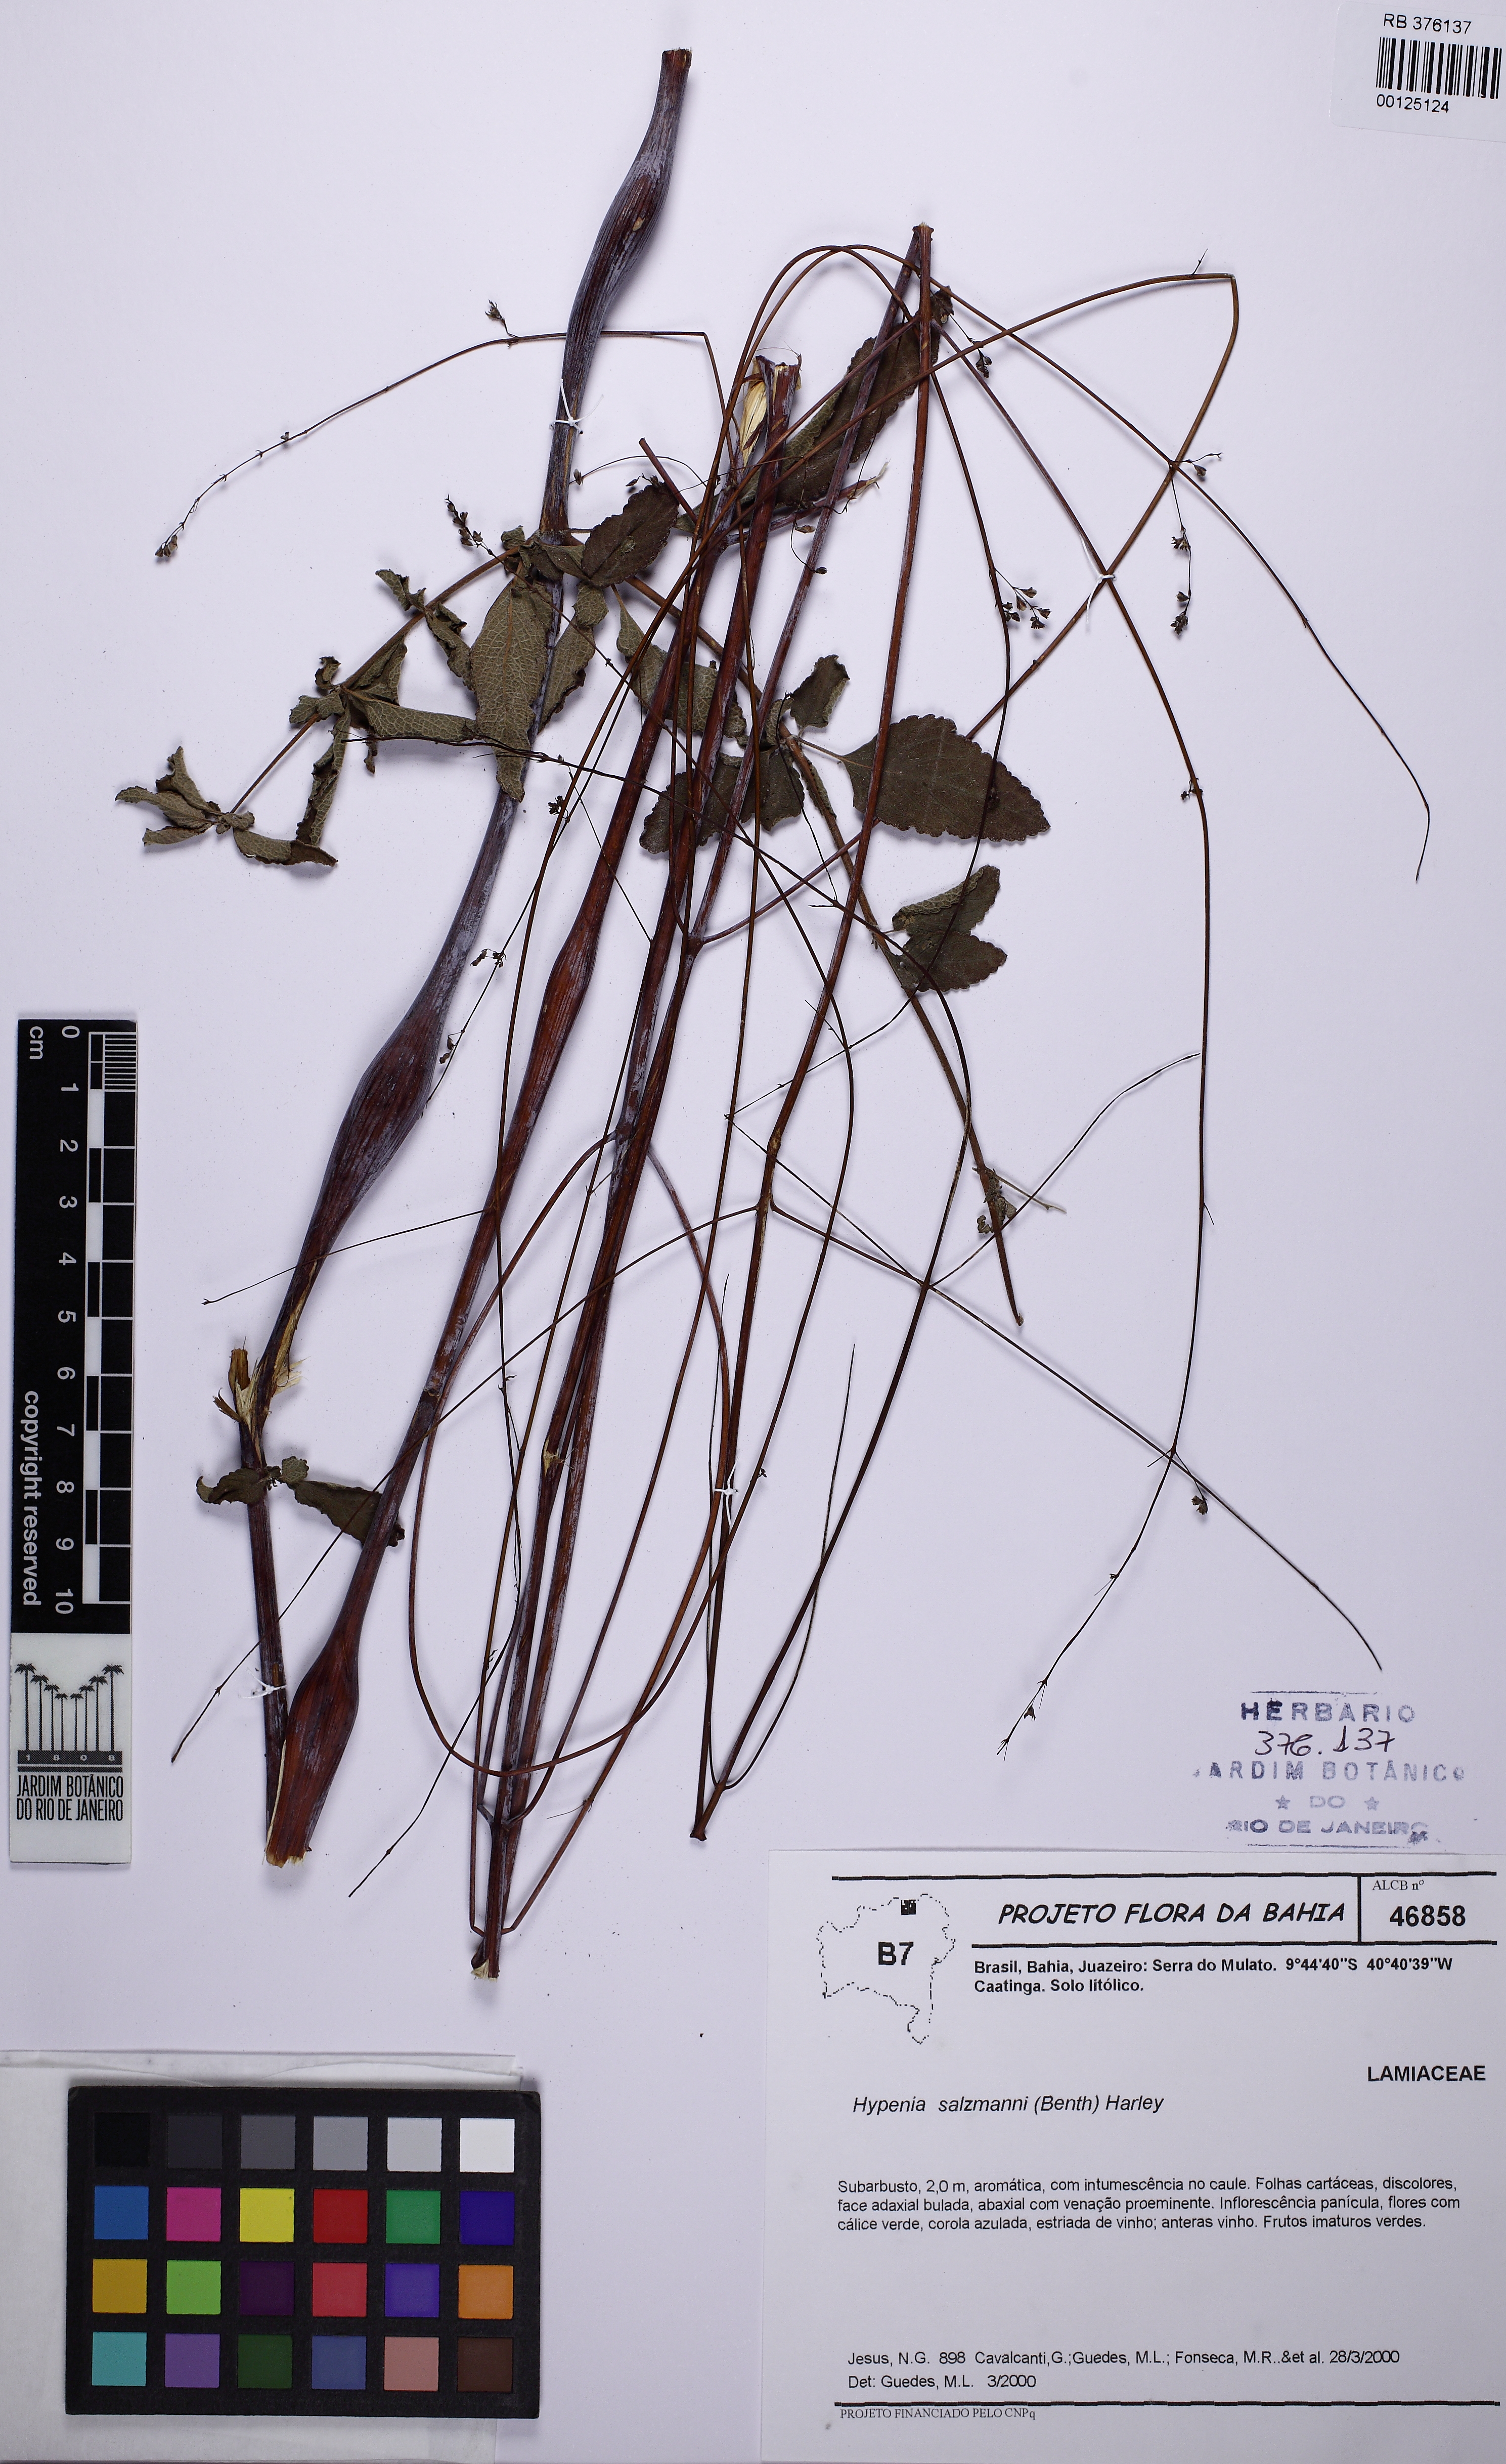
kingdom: Plantae
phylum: Tracheophyta
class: Magnoliopsida
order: Lamiales
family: Lamiaceae
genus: Hypenia
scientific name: Hypenia salzmannii
